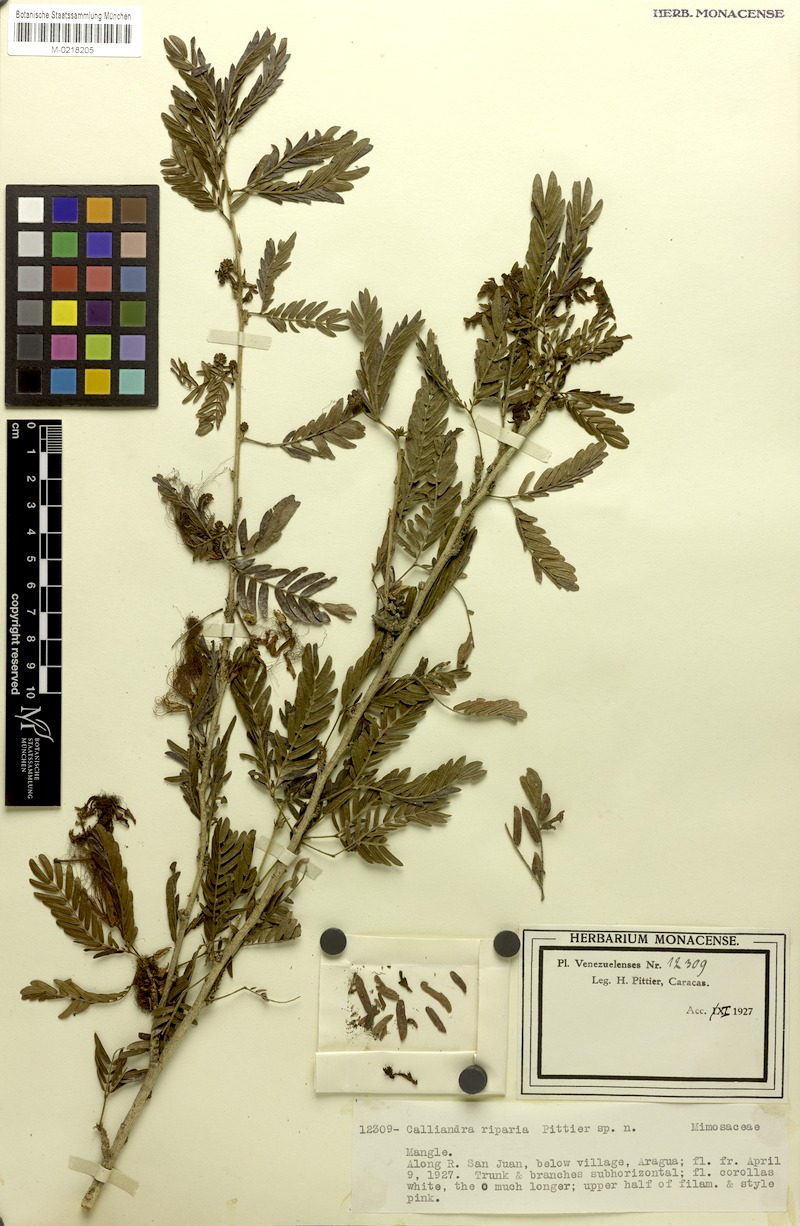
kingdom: Plantae
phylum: Tracheophyta
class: Magnoliopsida
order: Fabales
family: Fabaceae
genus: Calliandra
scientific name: Calliandra riparia
